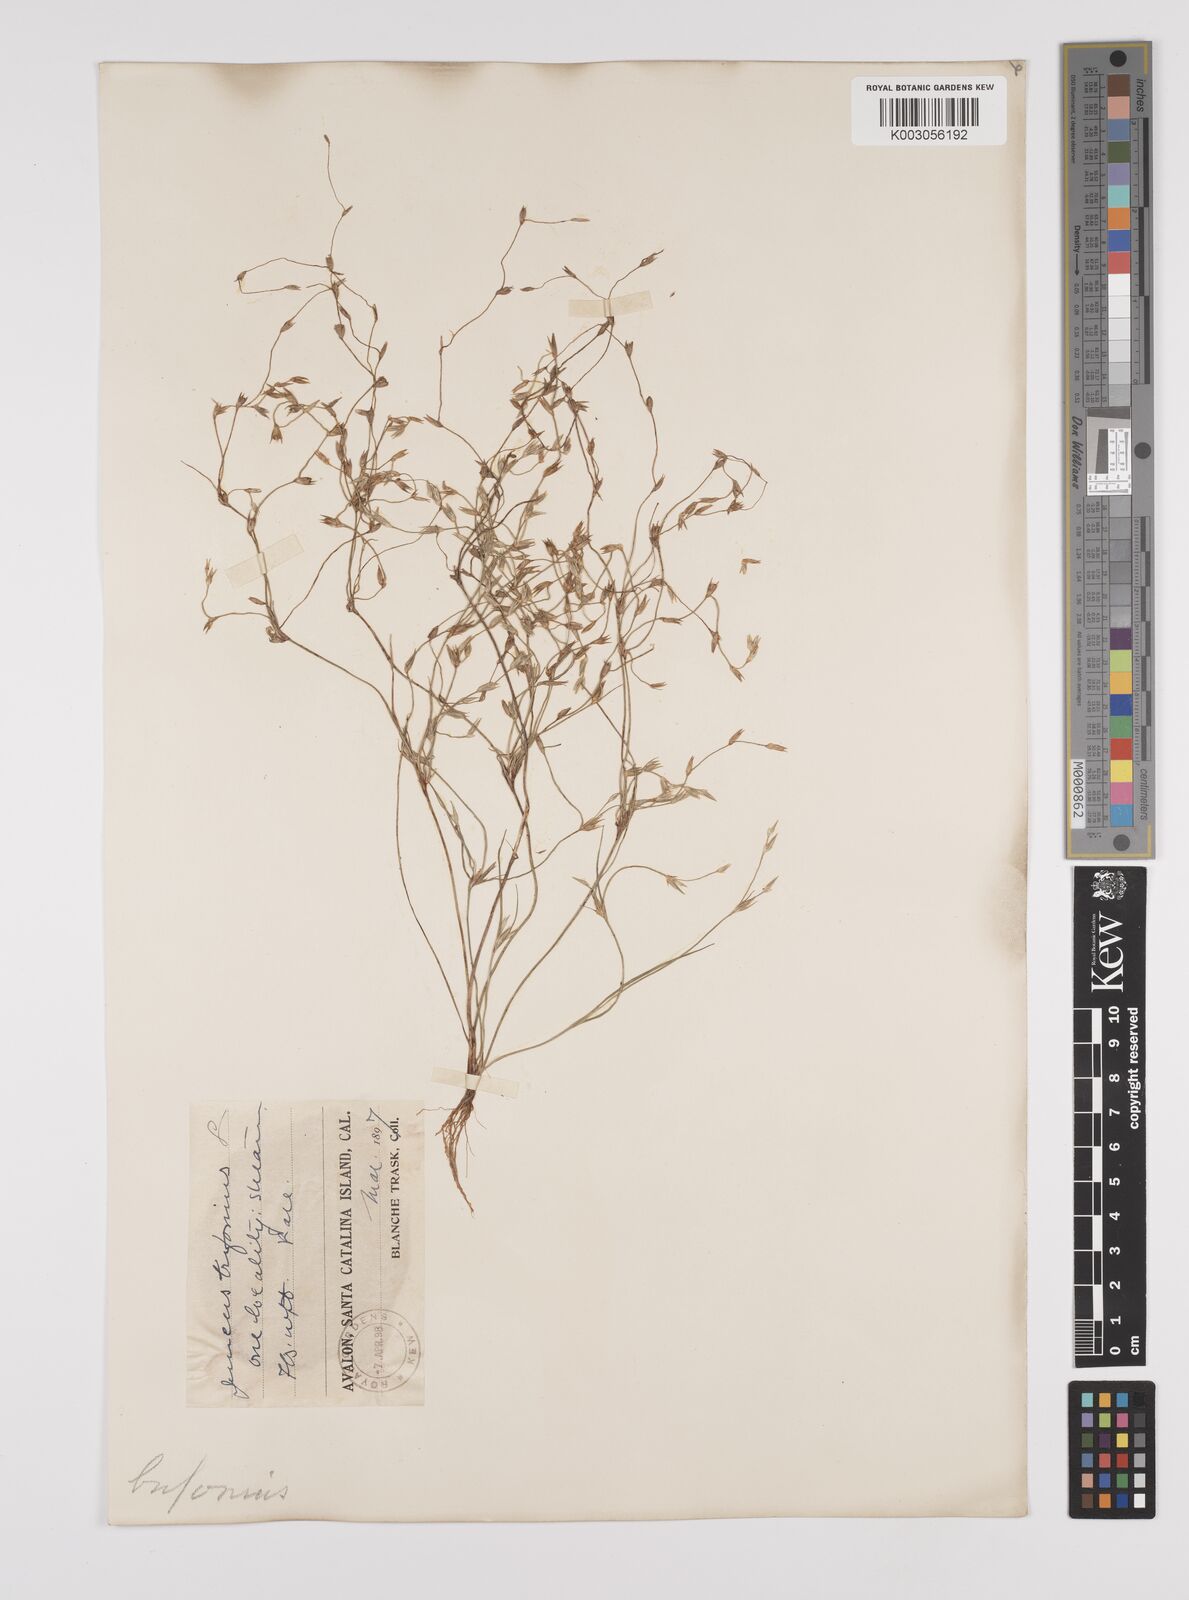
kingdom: Plantae
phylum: Tracheophyta
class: Liliopsida
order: Poales
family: Juncaceae
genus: Juncus
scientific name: Juncus bufonius
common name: Toad rush
